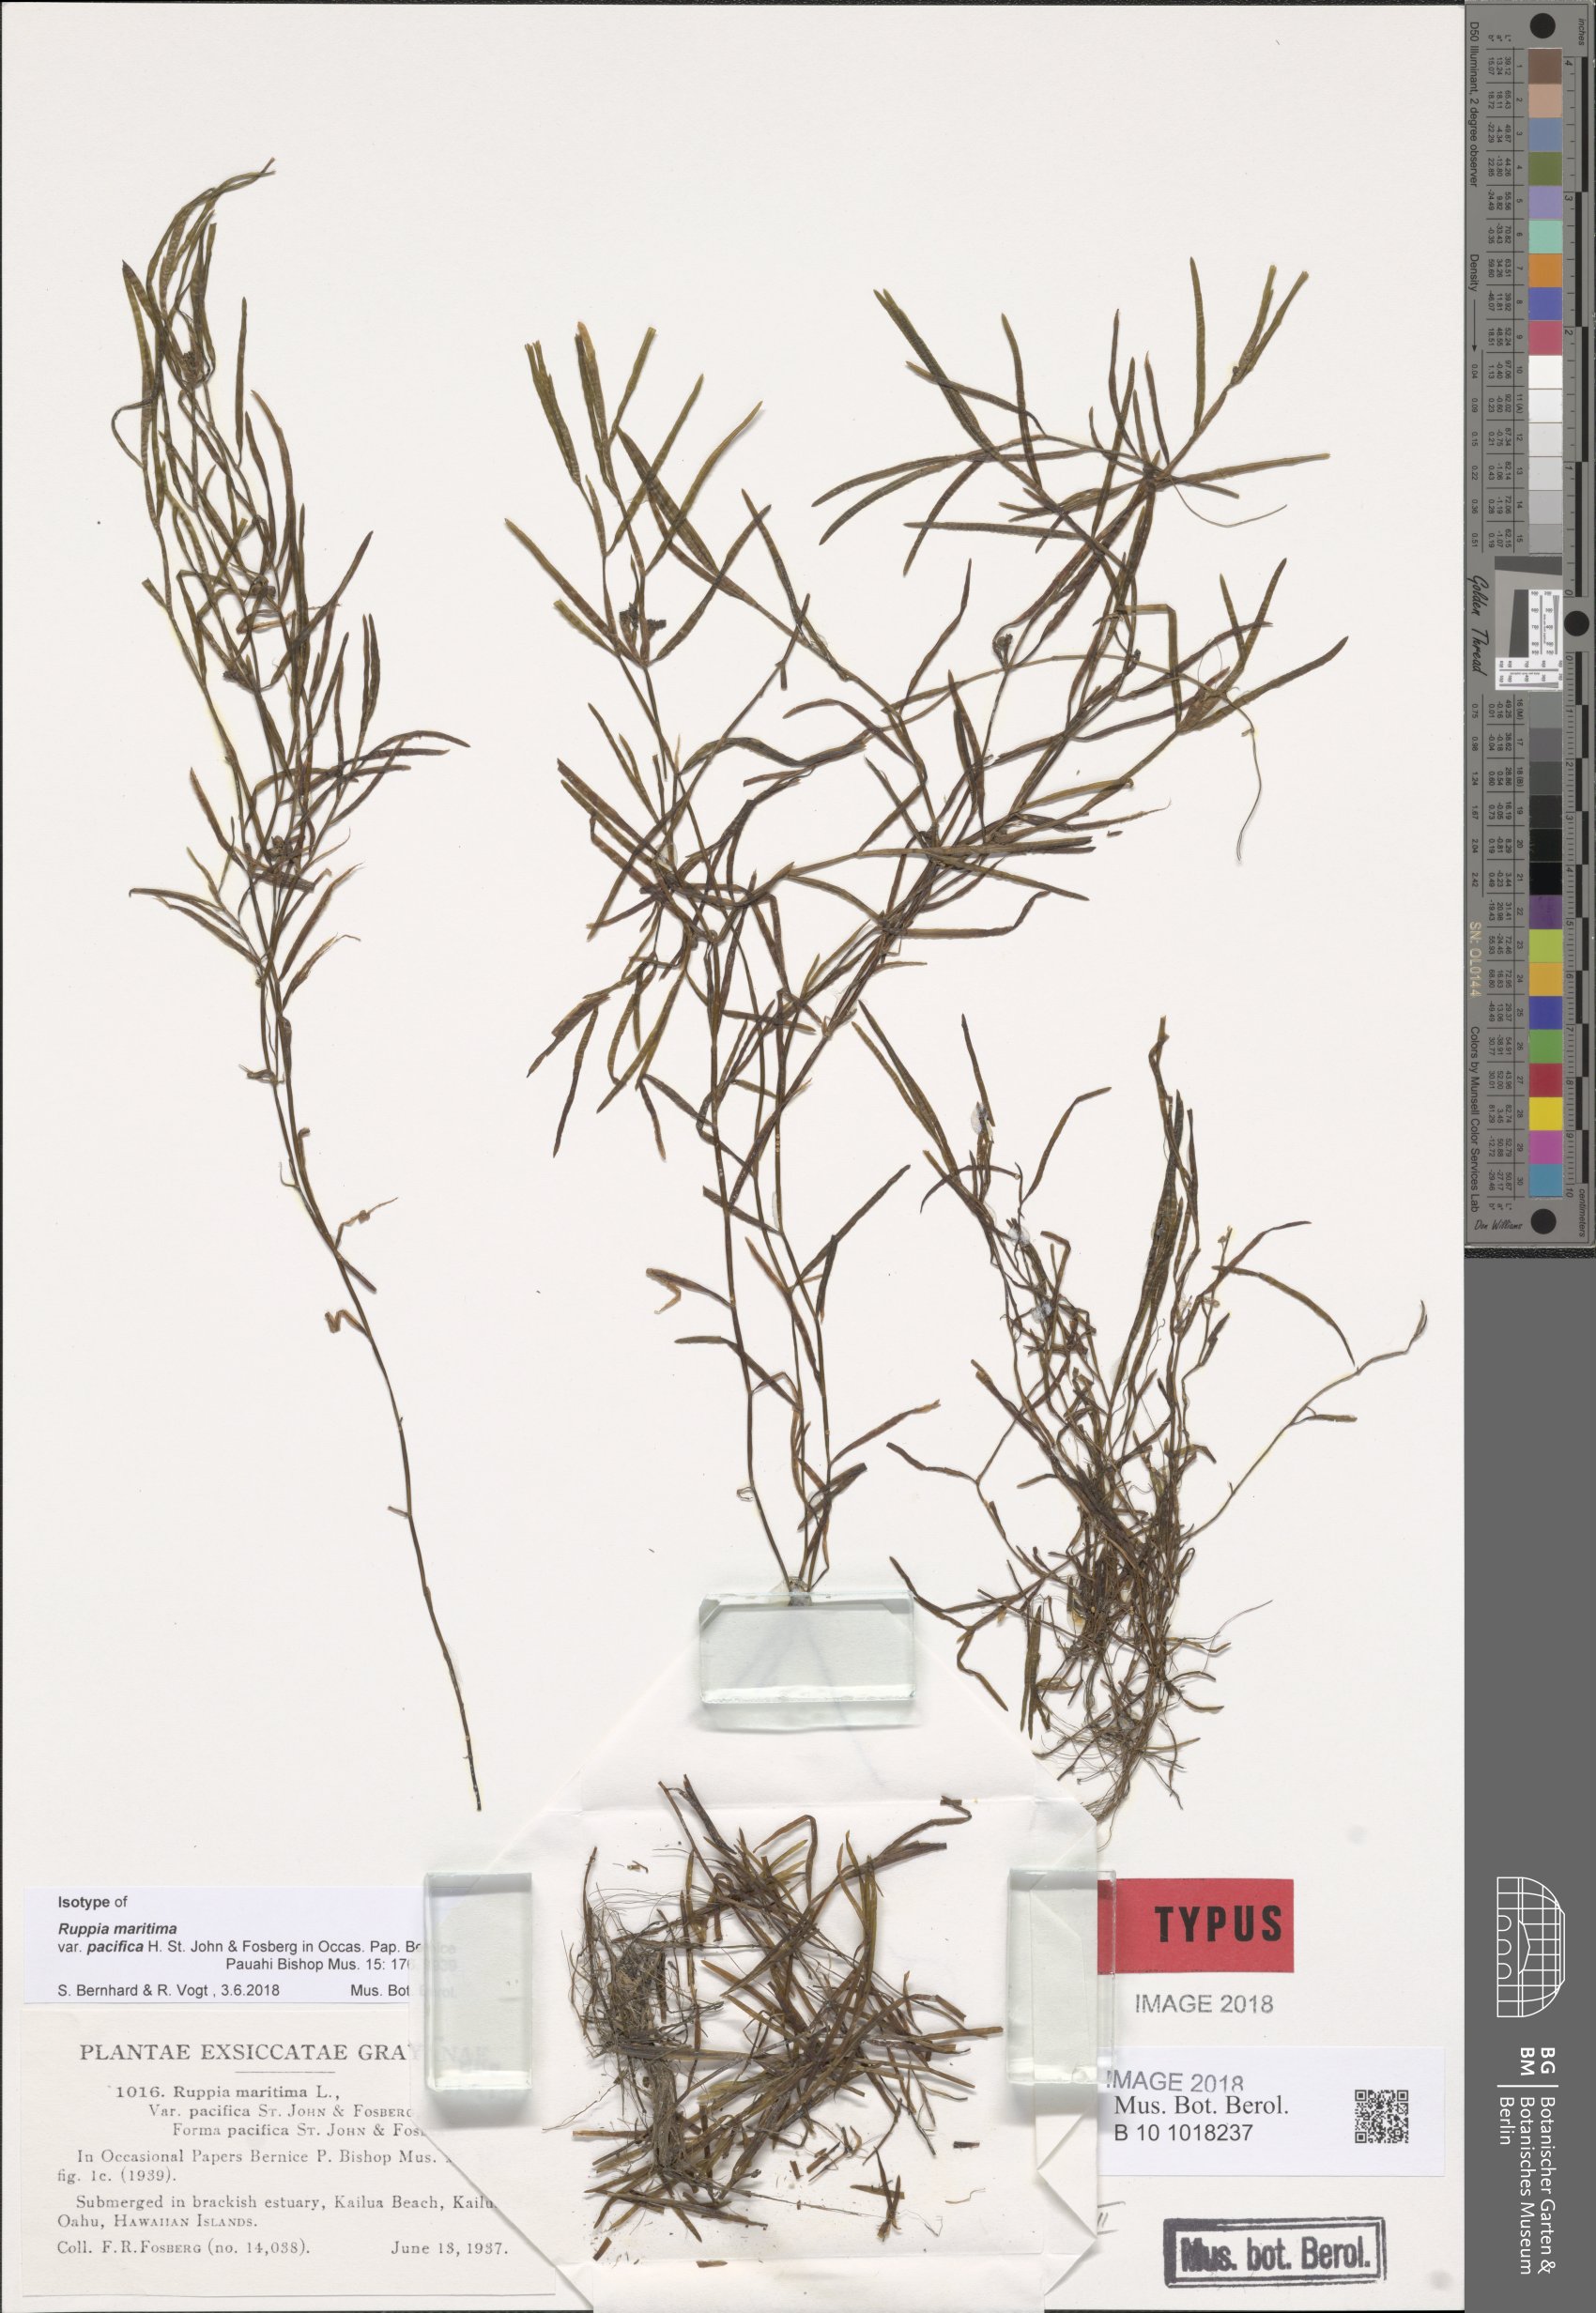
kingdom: Plantae
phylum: Tracheophyta
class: Liliopsida
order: Alismatales
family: Ruppiaceae
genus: Ruppia
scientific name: Ruppia maritima
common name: Beaked tasselweed
